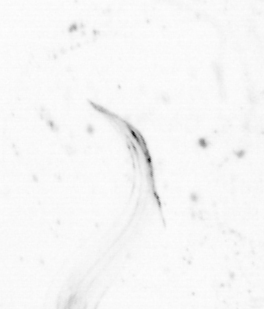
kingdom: Animalia
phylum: Chordata
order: Copelata
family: Fritillariidae
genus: Appendicularia
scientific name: Appendicularia
